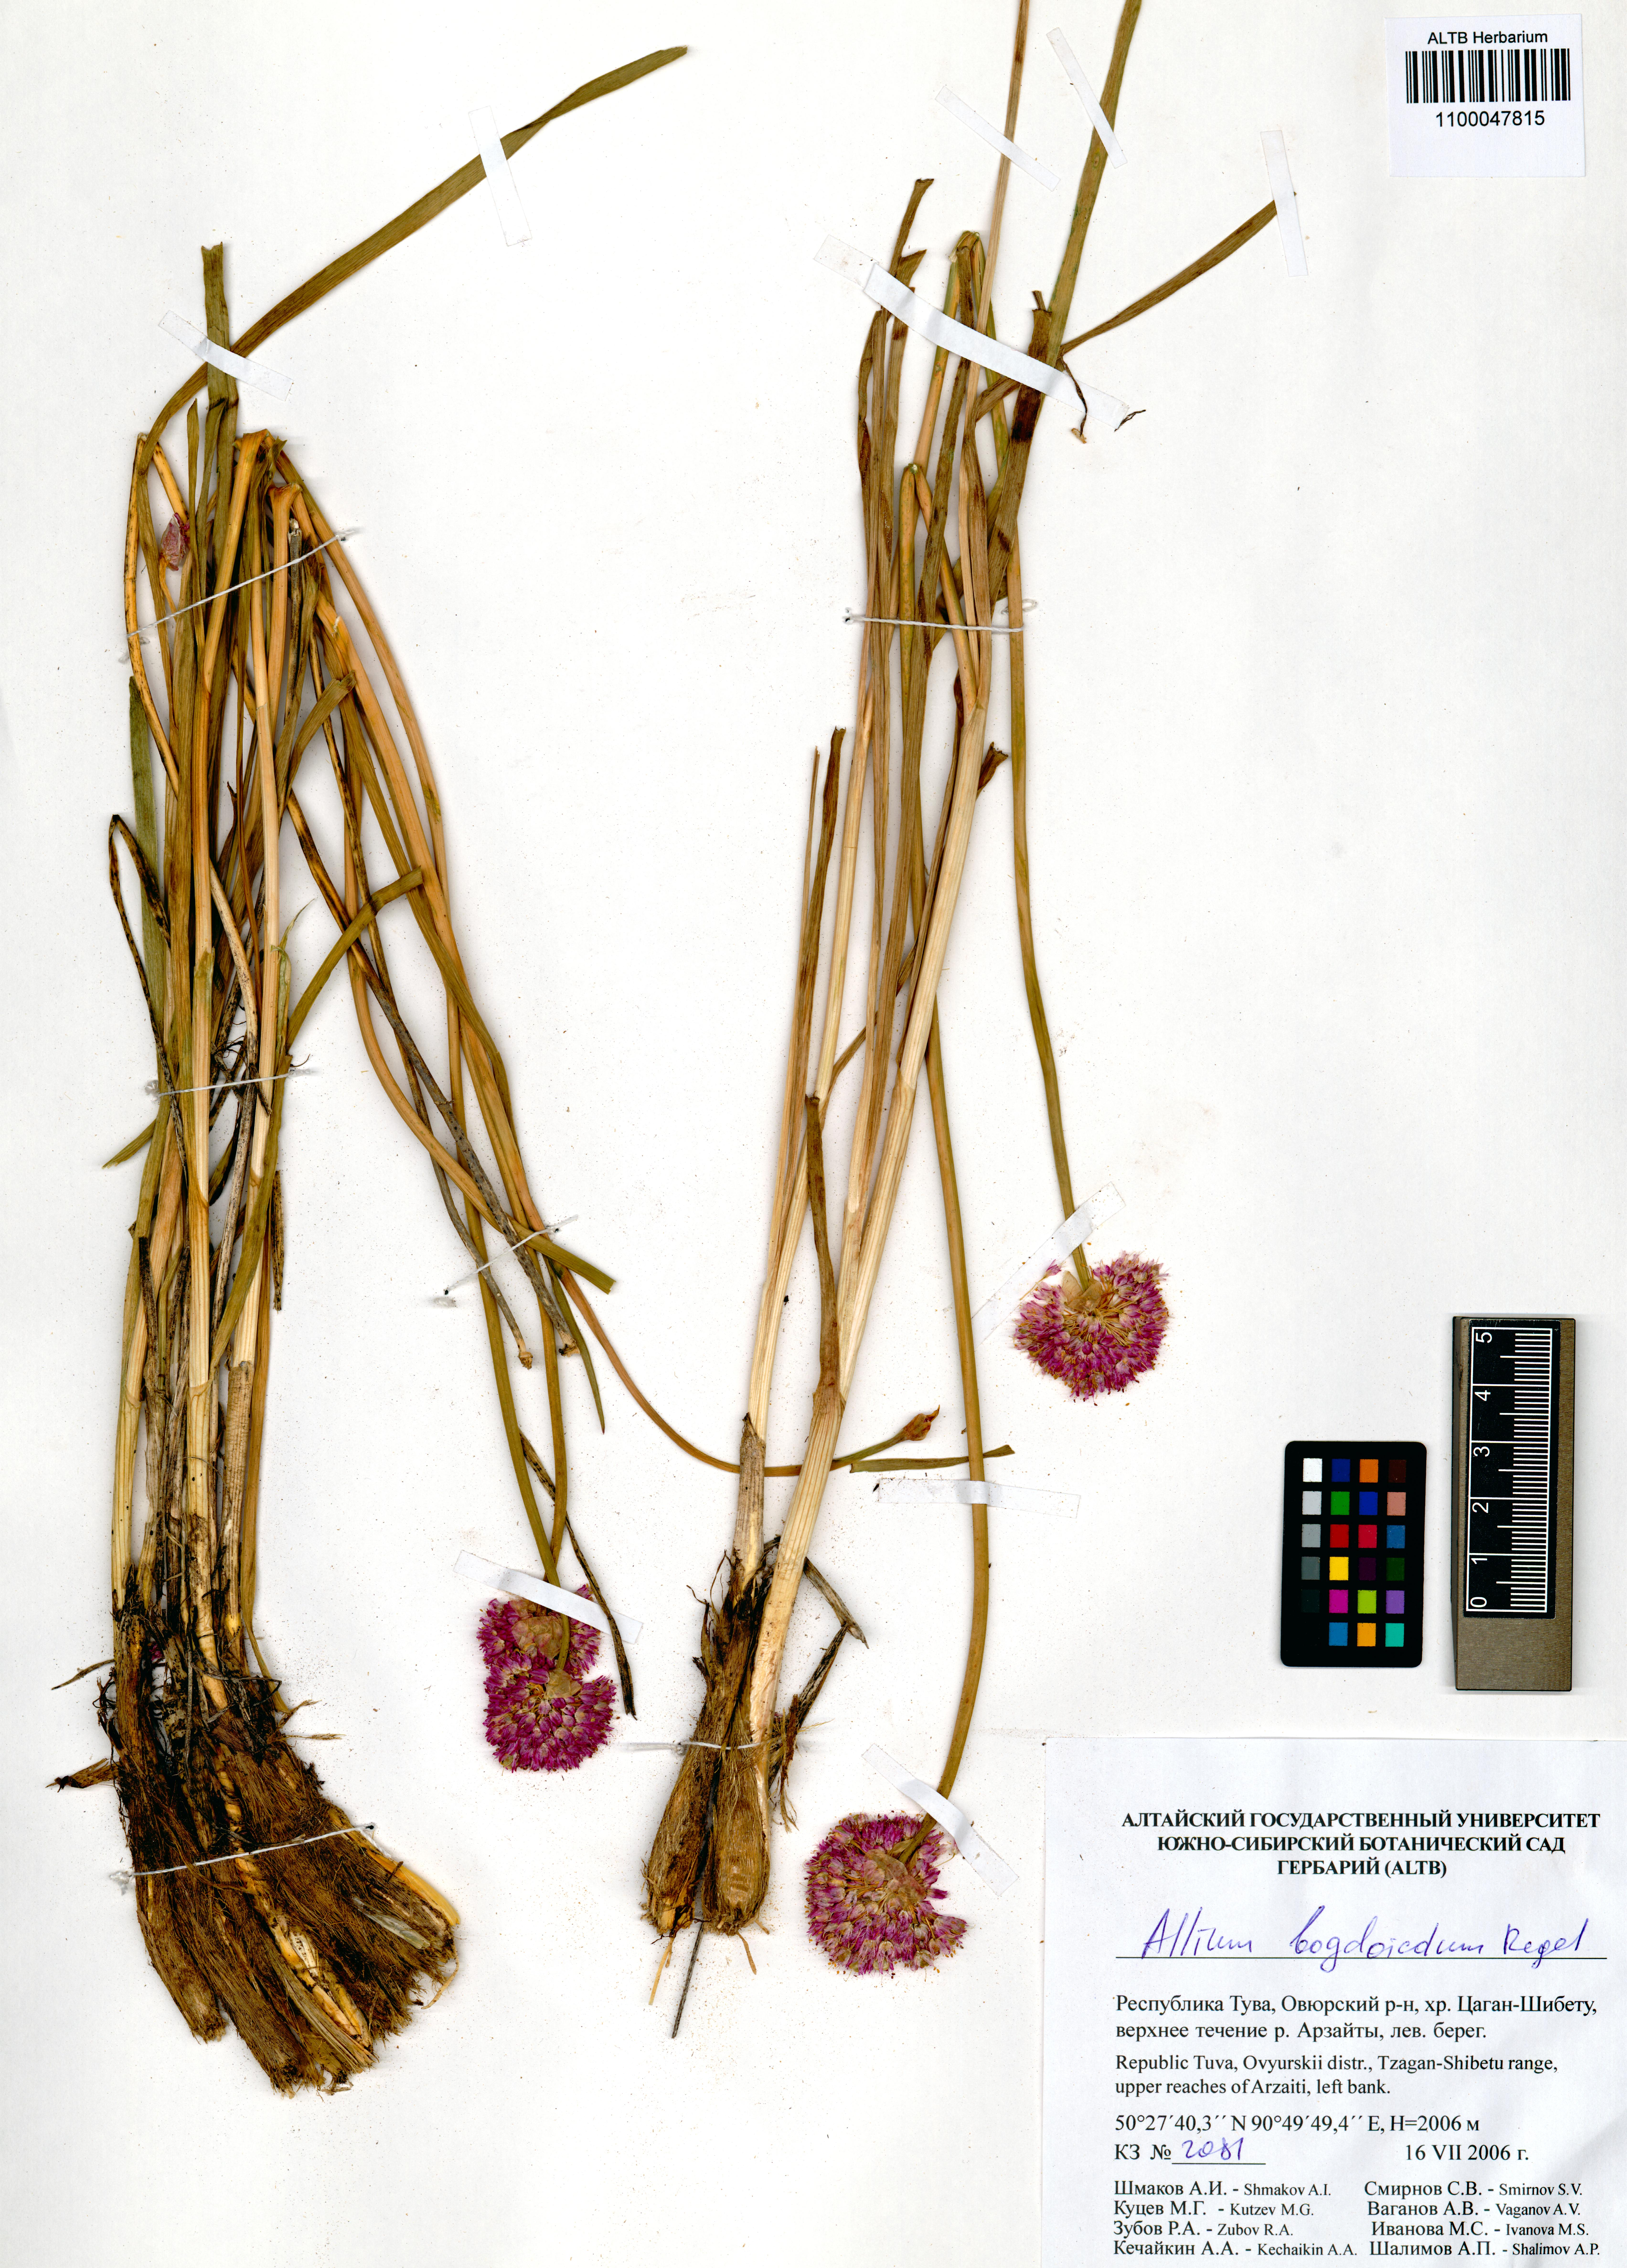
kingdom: Plantae
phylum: Tracheophyta
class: Liliopsida
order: Asparagales
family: Amaryllidaceae
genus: Allium
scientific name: Allium schrenkii
